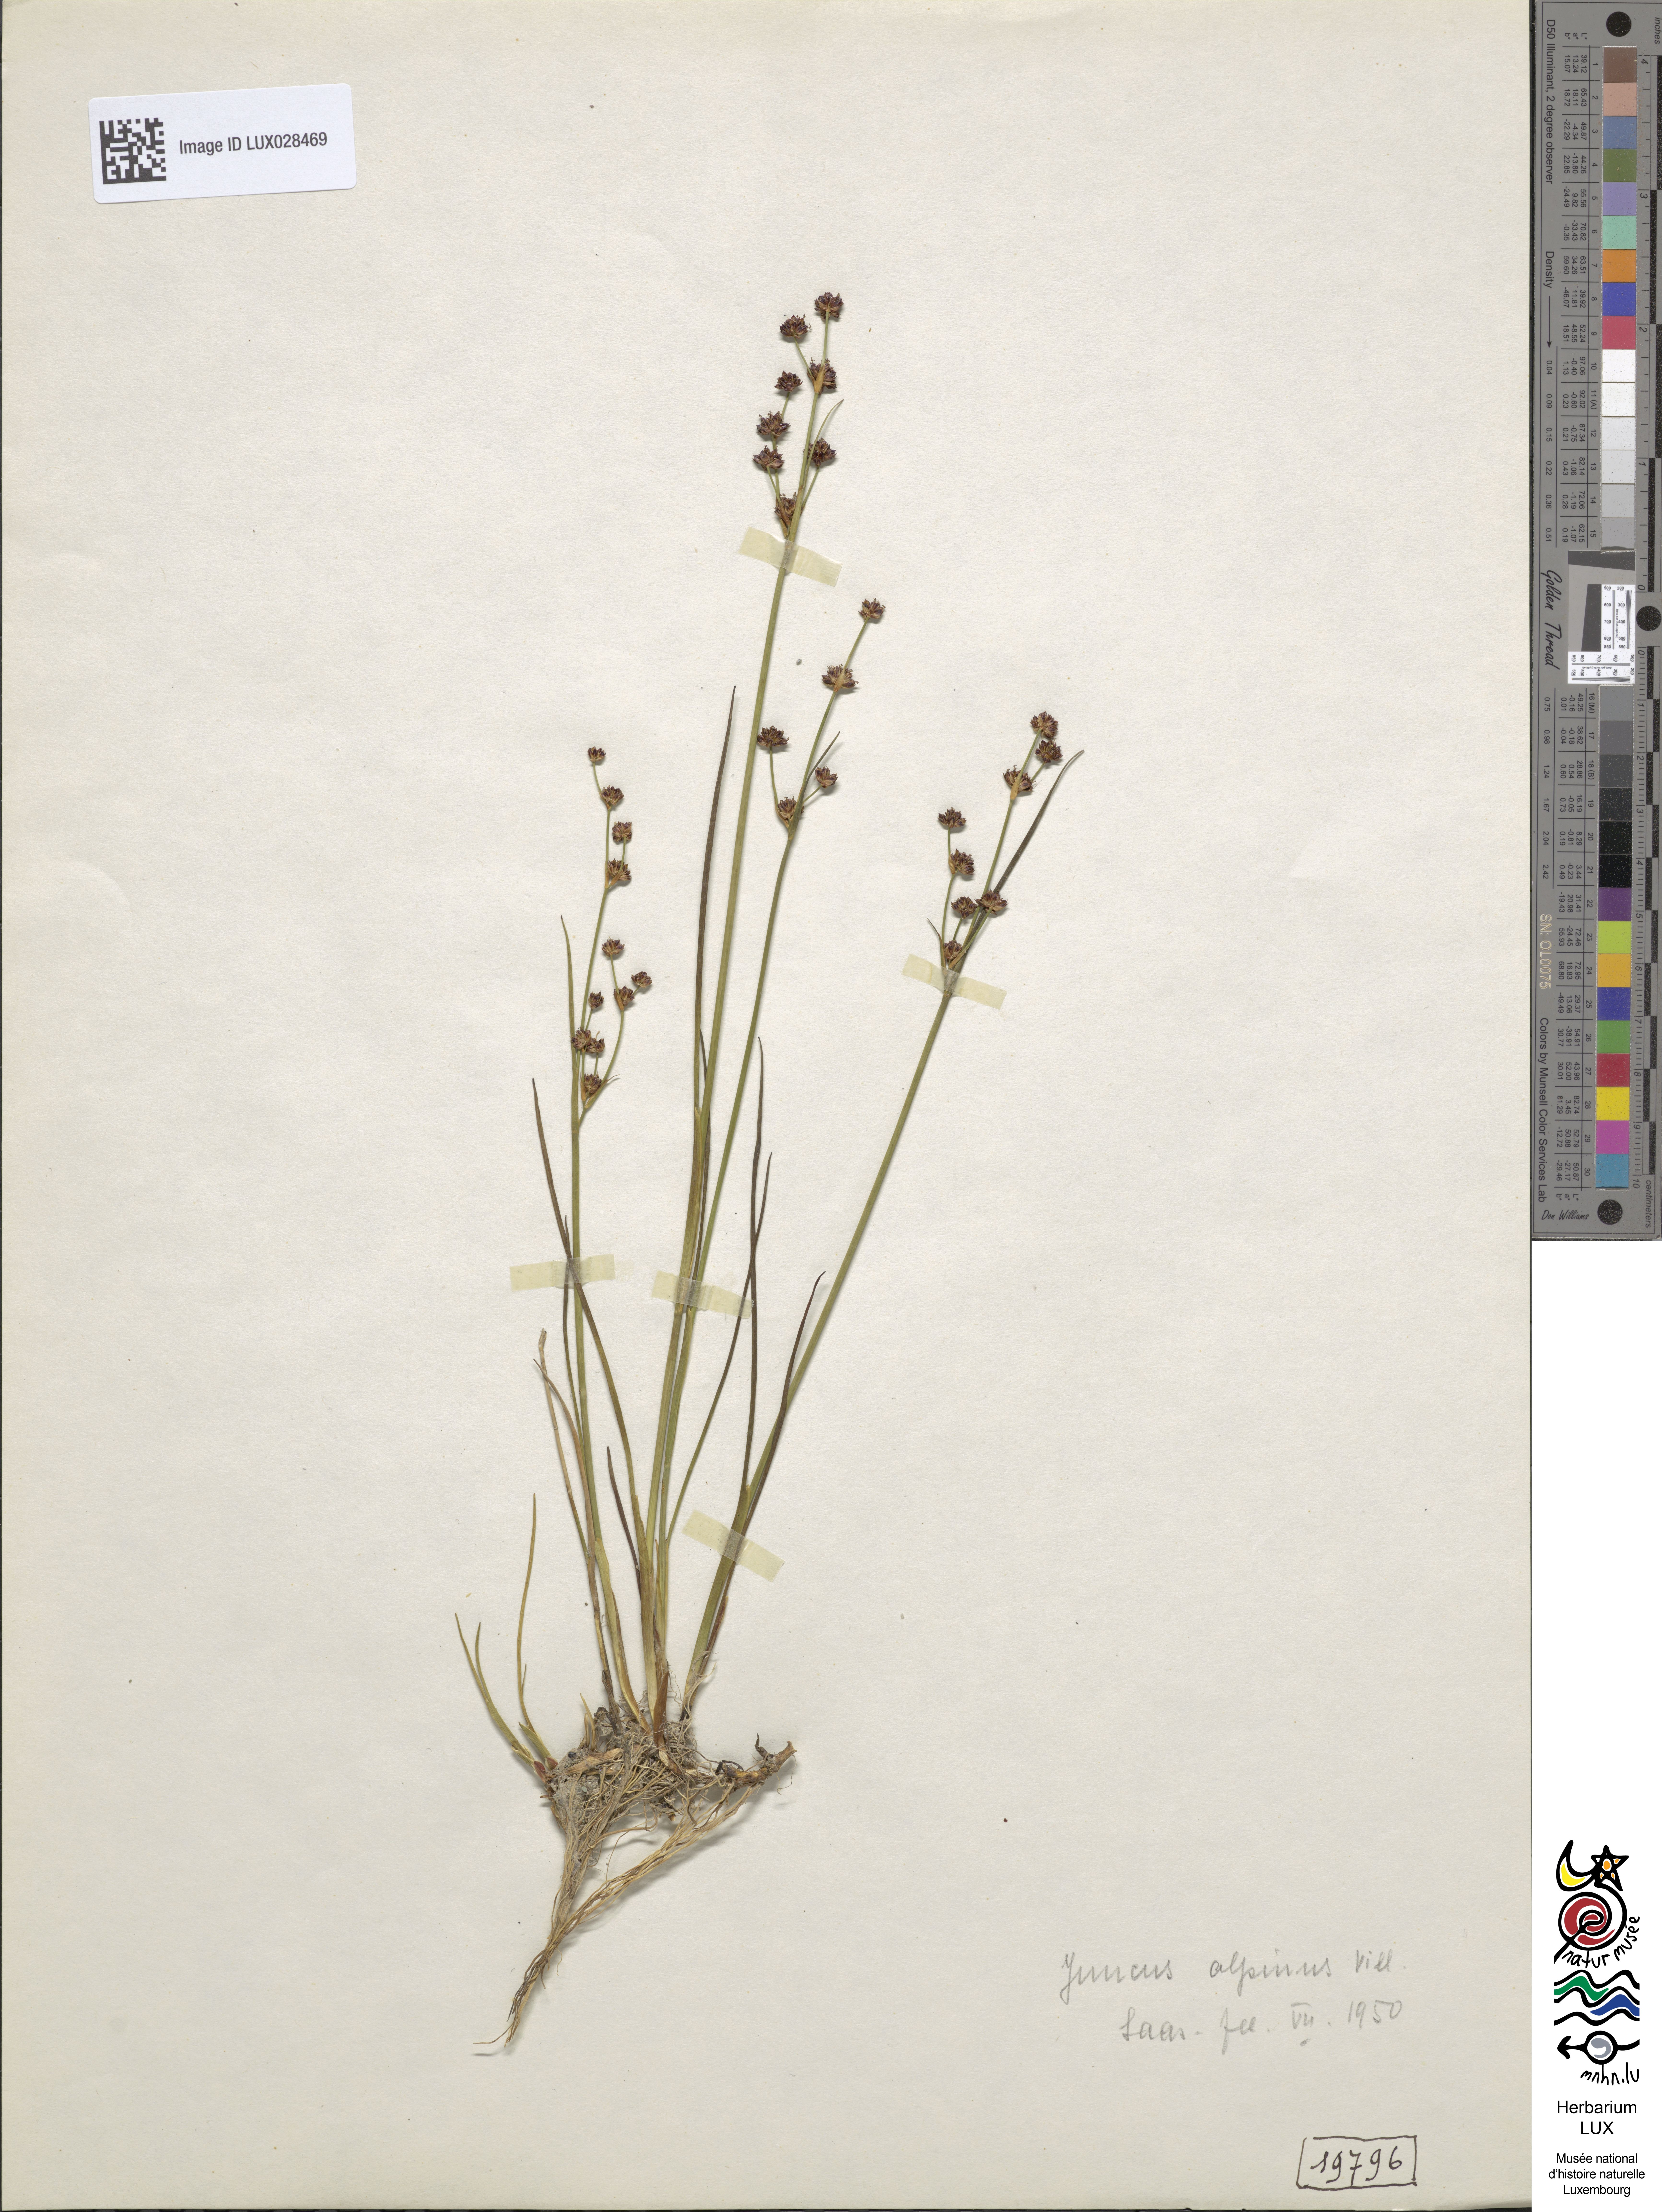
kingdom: Plantae
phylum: Tracheophyta
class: Liliopsida
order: Poales
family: Juncaceae
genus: Juncus
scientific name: Juncus alpinoarticulatus
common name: Alpine rush
